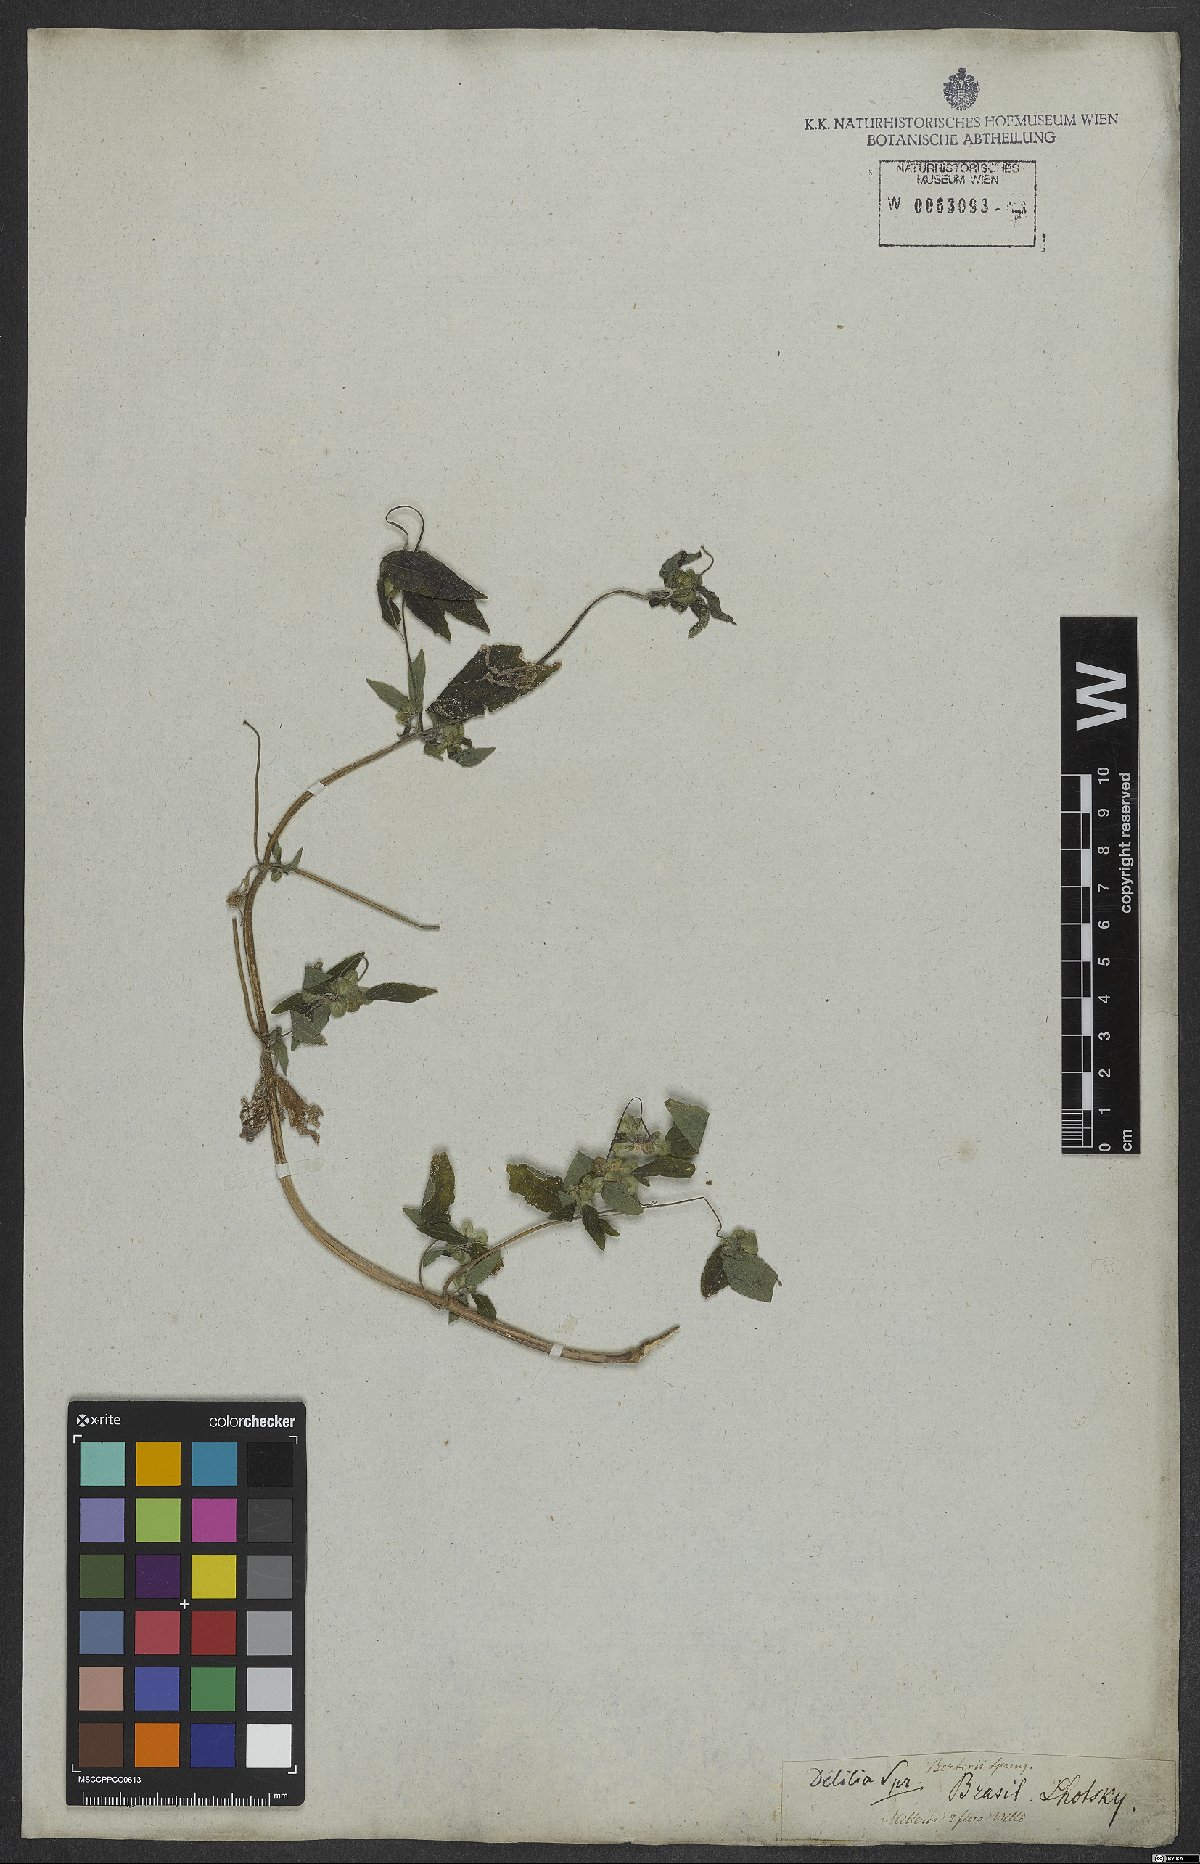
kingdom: Plantae
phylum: Tracheophyta
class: Magnoliopsida
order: Asterales
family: Asteraceae
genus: Delilia
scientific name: Delilia biflora
